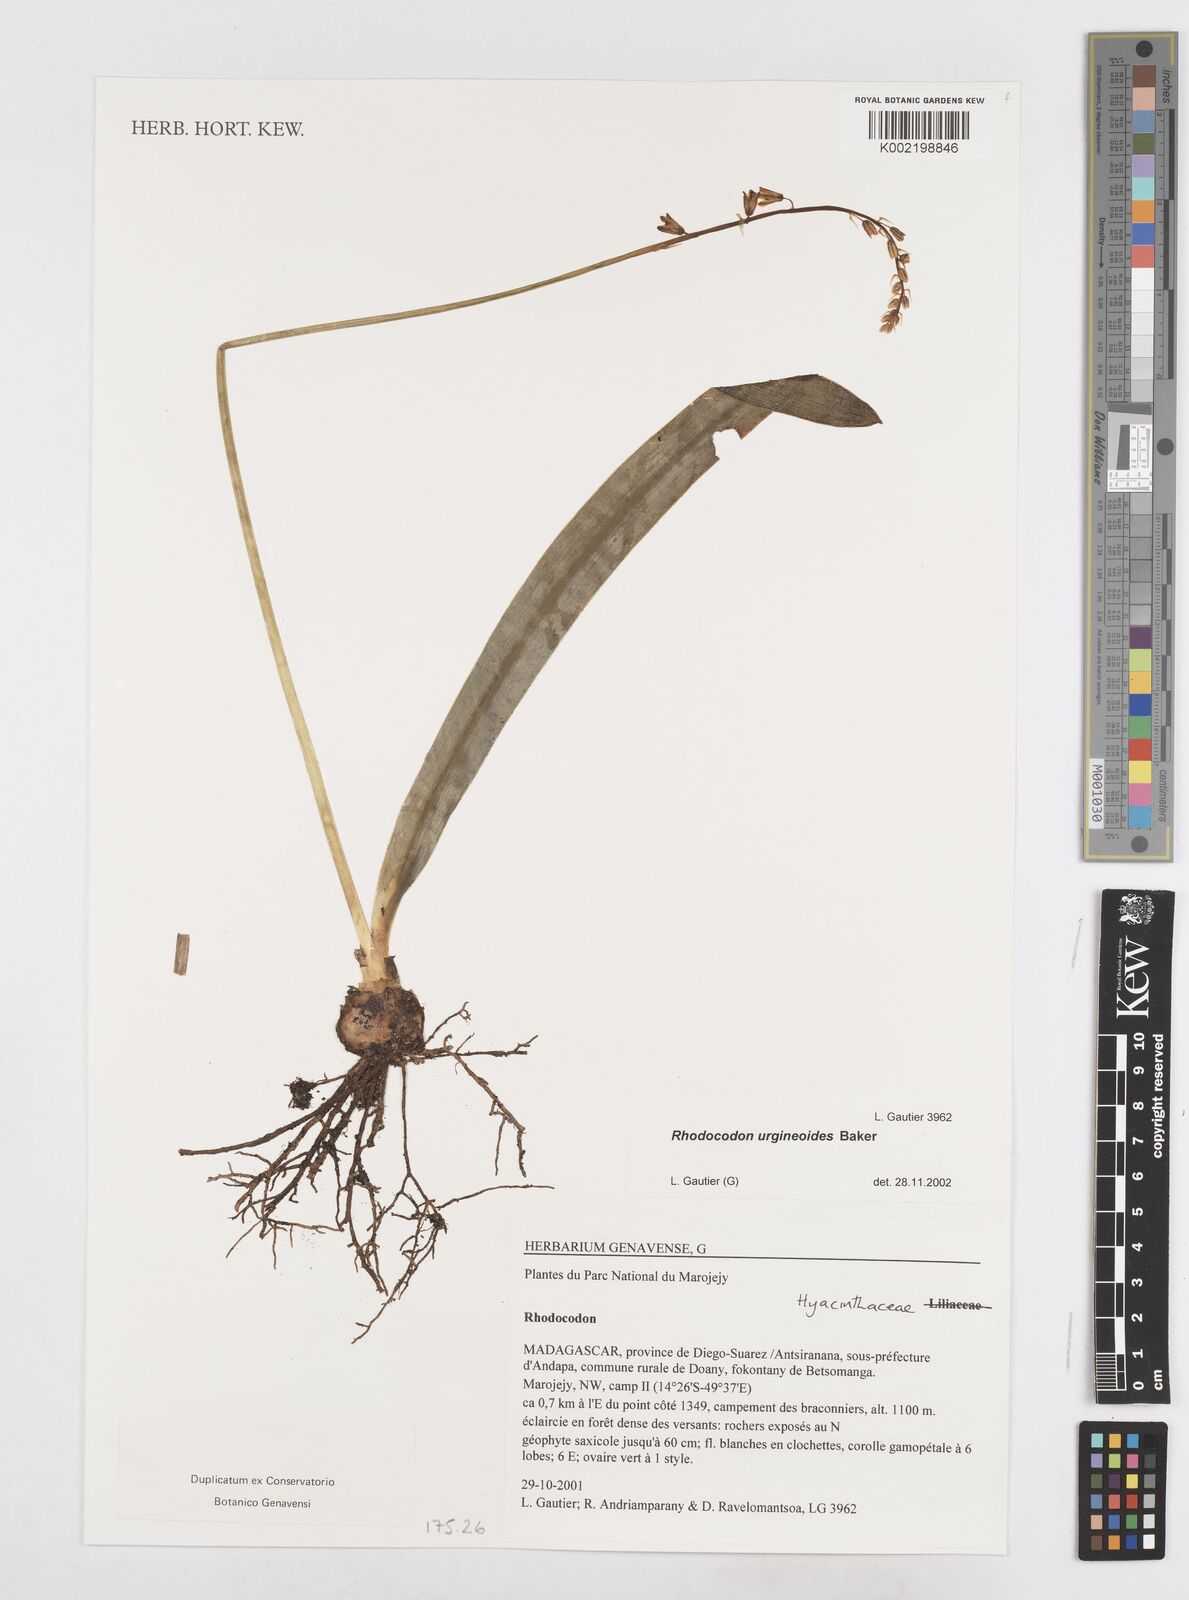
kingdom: Plantae
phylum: Tracheophyta
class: Liliopsida
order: Asparagales
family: Asparagaceae
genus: Drimia
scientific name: Drimia urgineoides
